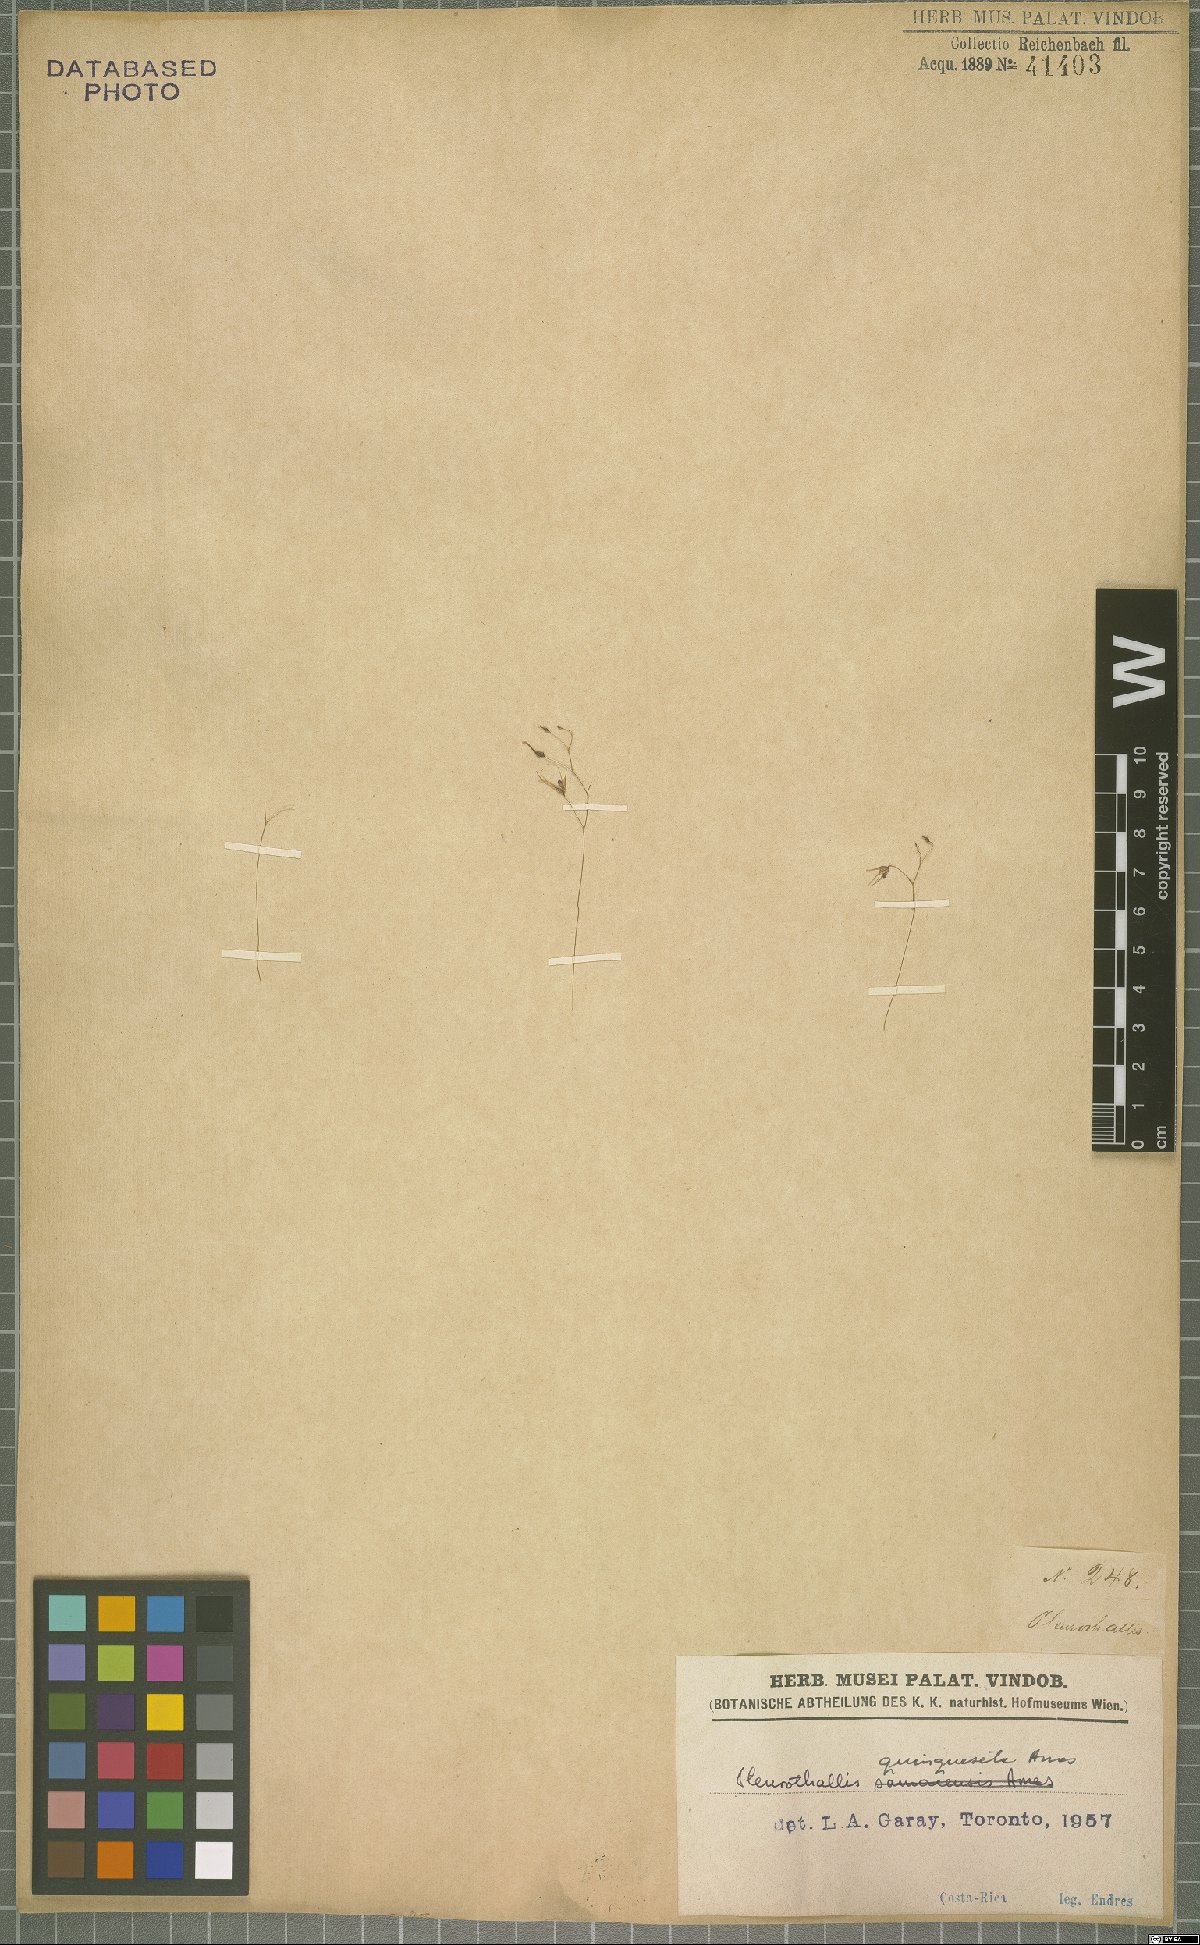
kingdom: Plantae
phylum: Tracheophyta
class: Liliopsida
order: Asparagales
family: Orchidaceae
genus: Muscarella
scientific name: Muscarella quinqueseta
